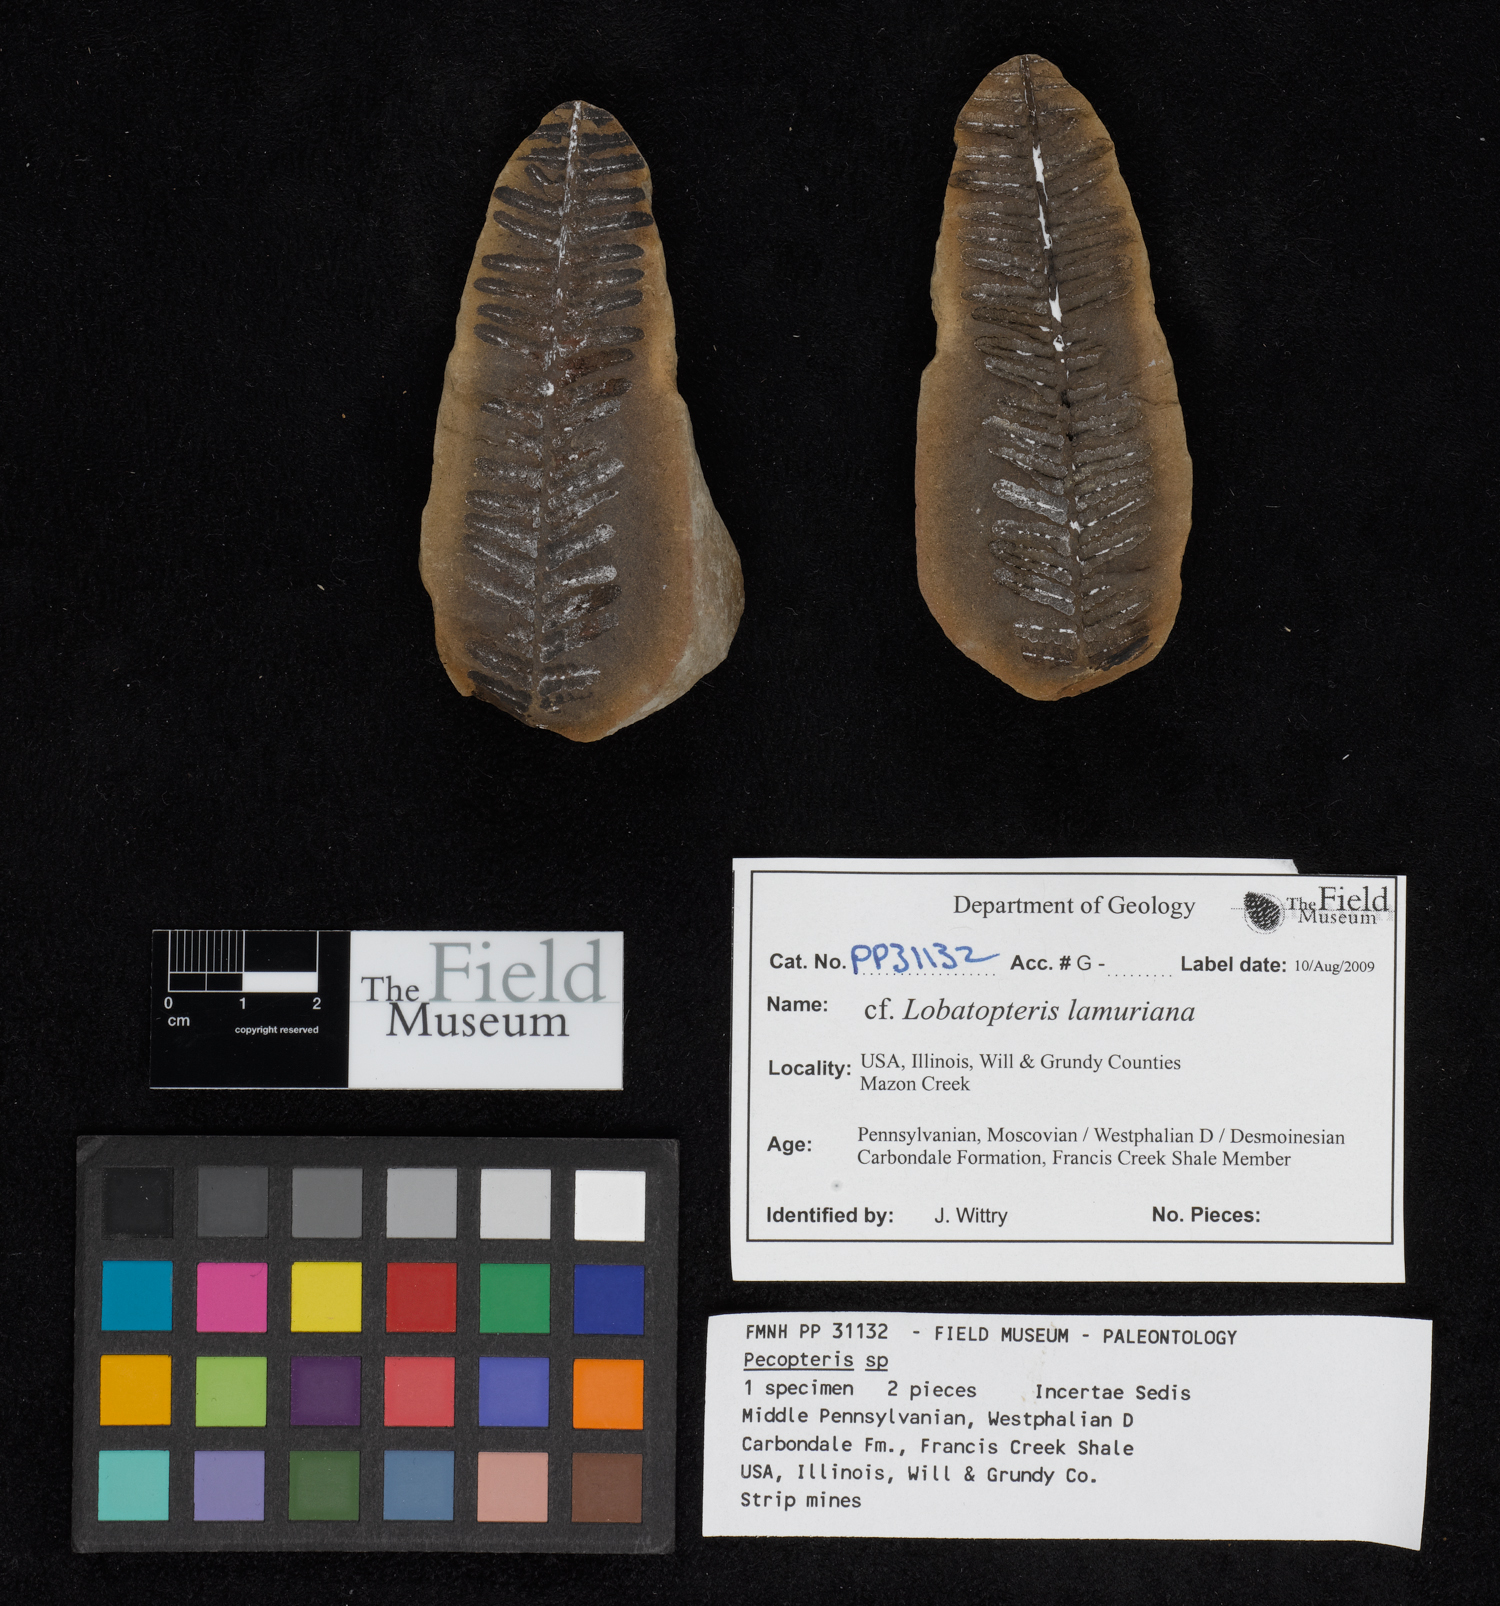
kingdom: Plantae
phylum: Tracheophyta
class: Polypodiopsida
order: Marattiales
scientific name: Marattiales
